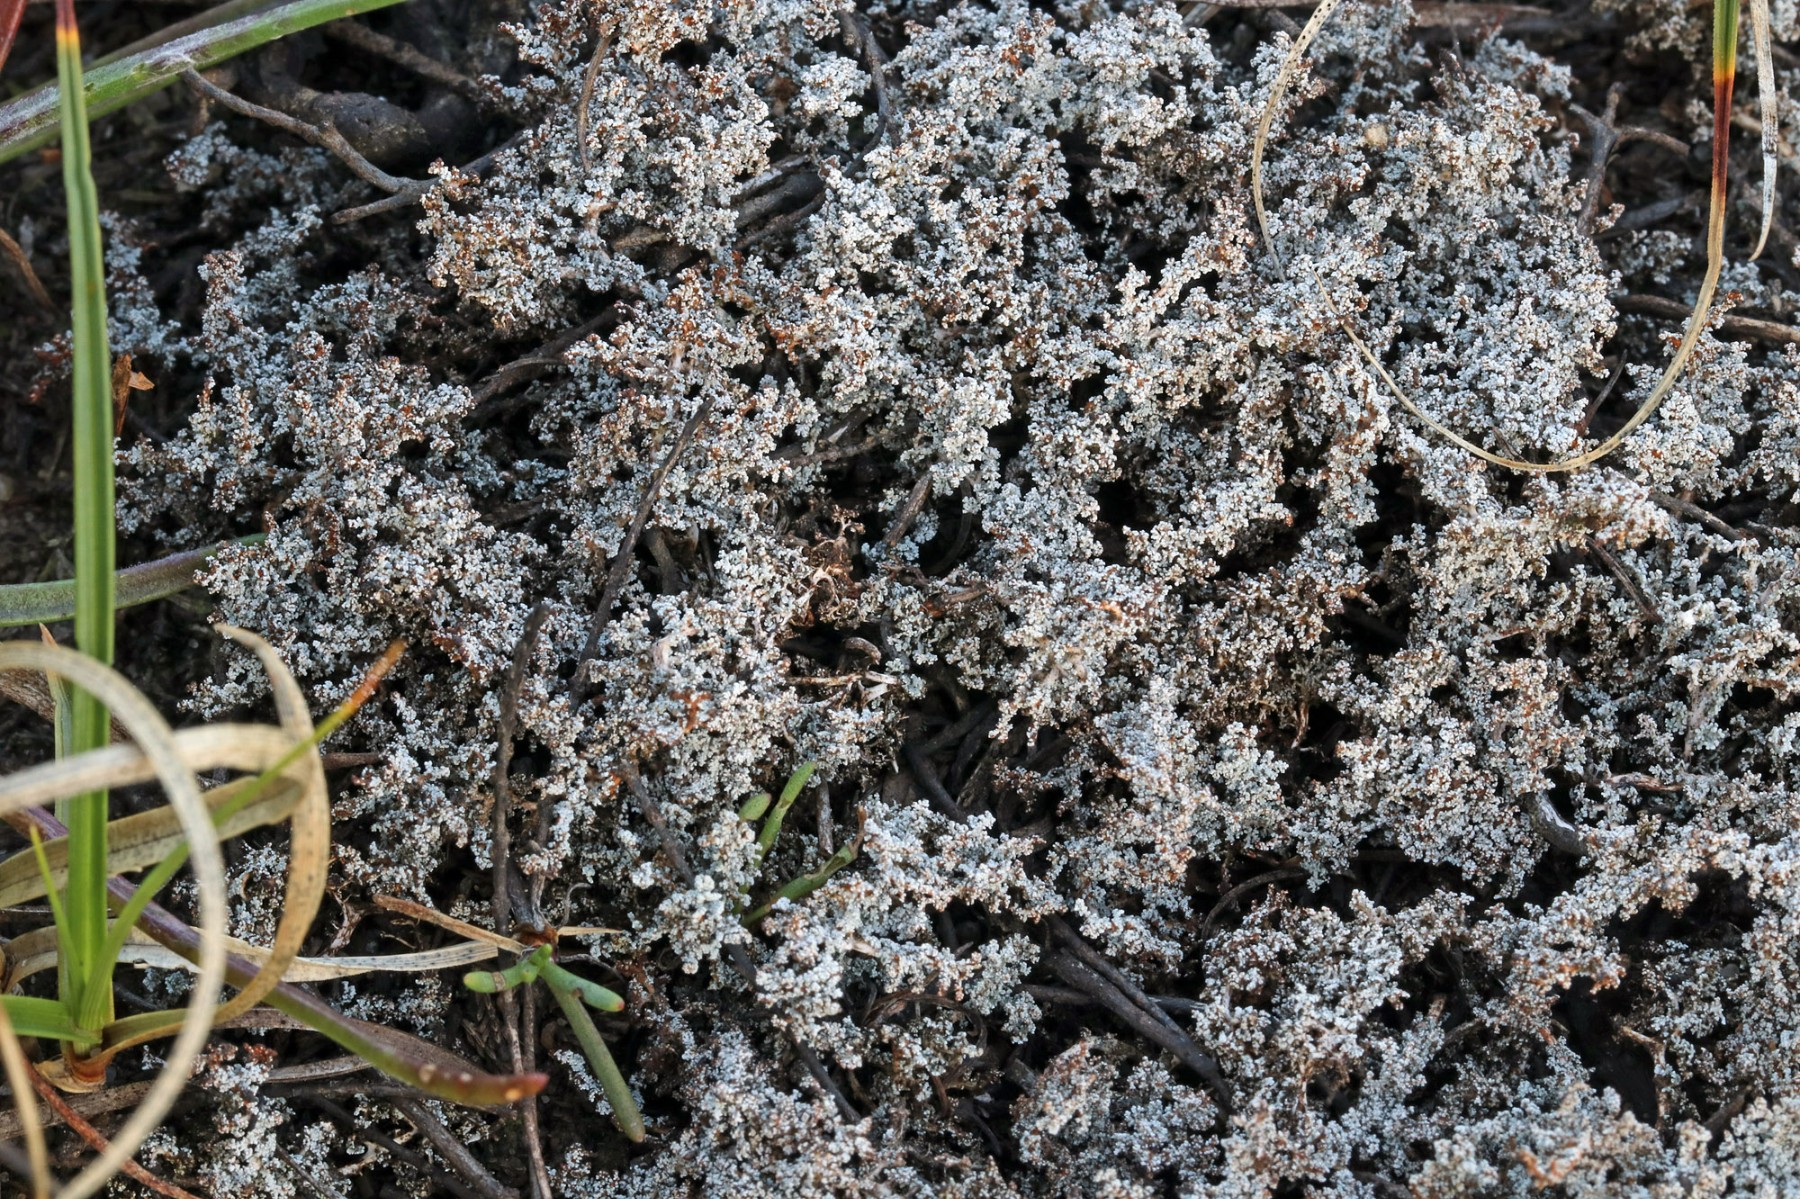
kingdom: Fungi
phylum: Ascomycota
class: Lecanoromycetes
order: Lecanorales
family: Stereocaulaceae
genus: Stereocaulon
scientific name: Stereocaulon saxatile
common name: klit-korallav
